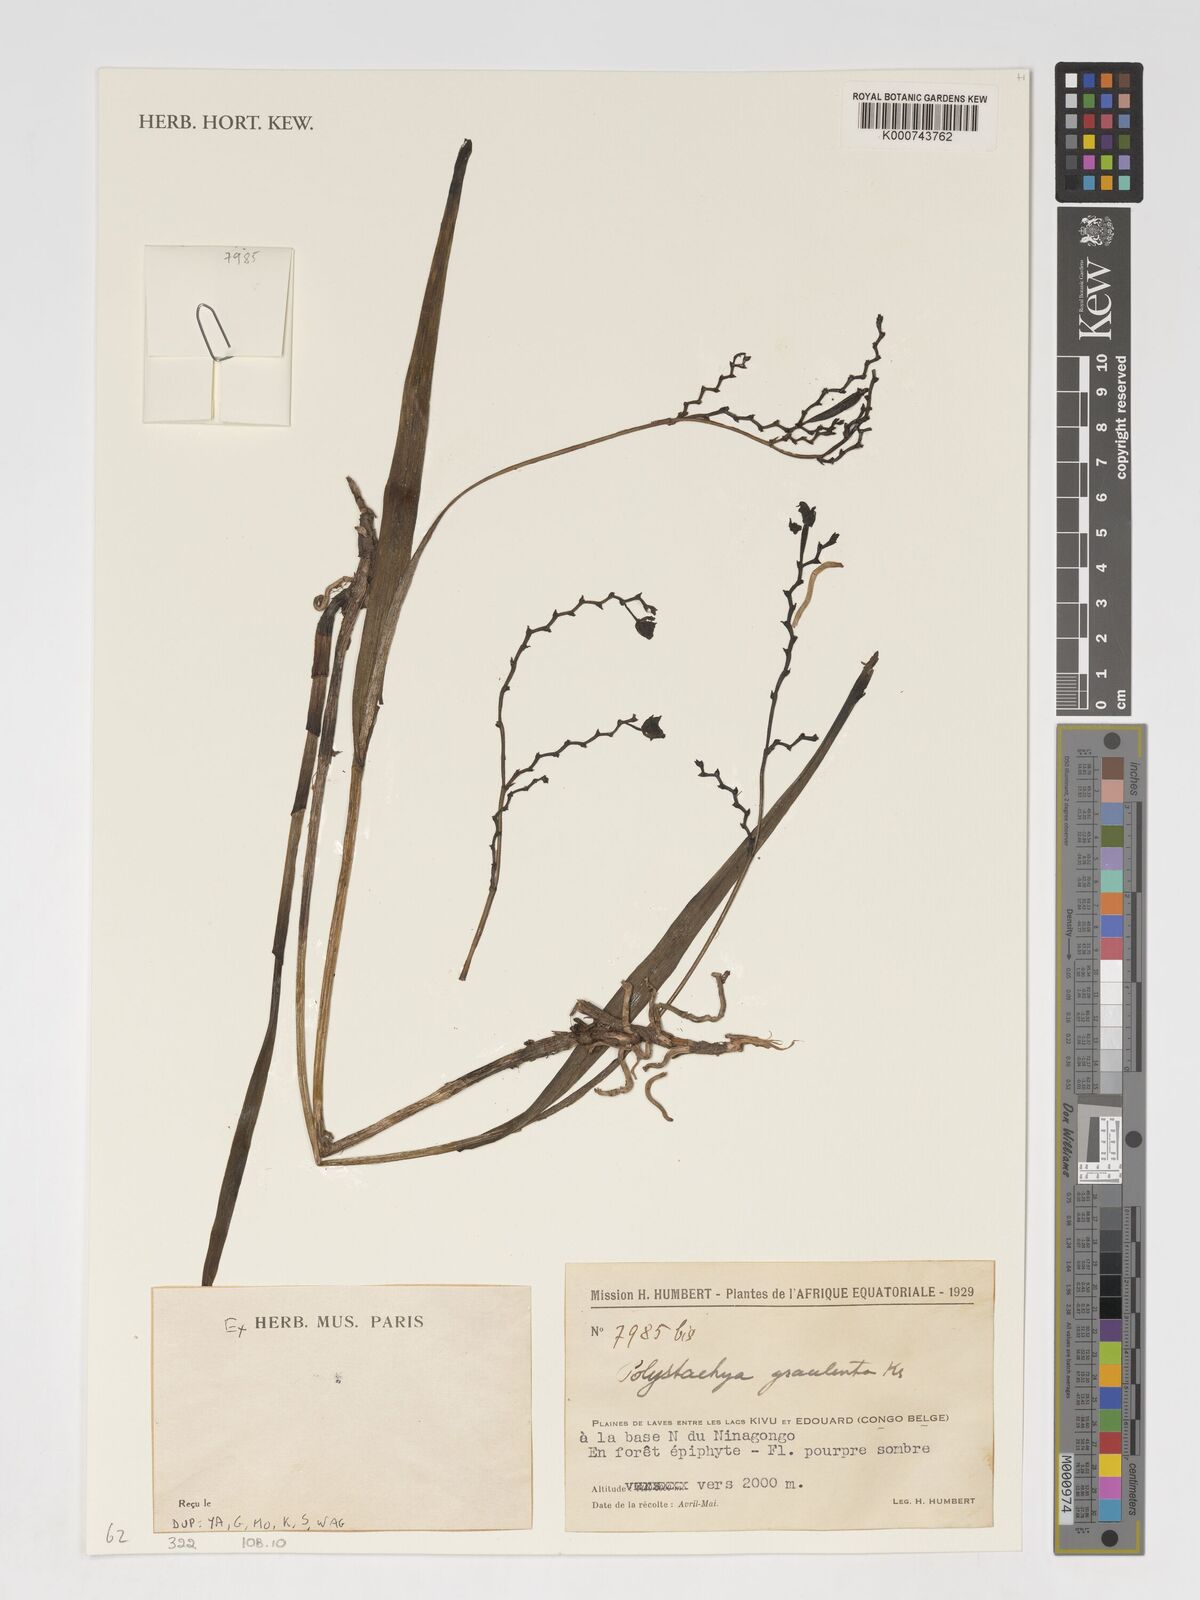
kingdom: Plantae
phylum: Tracheophyta
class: Liliopsida
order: Asparagales
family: Orchidaceae
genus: Polystachya
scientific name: Polystachya gracilenta
